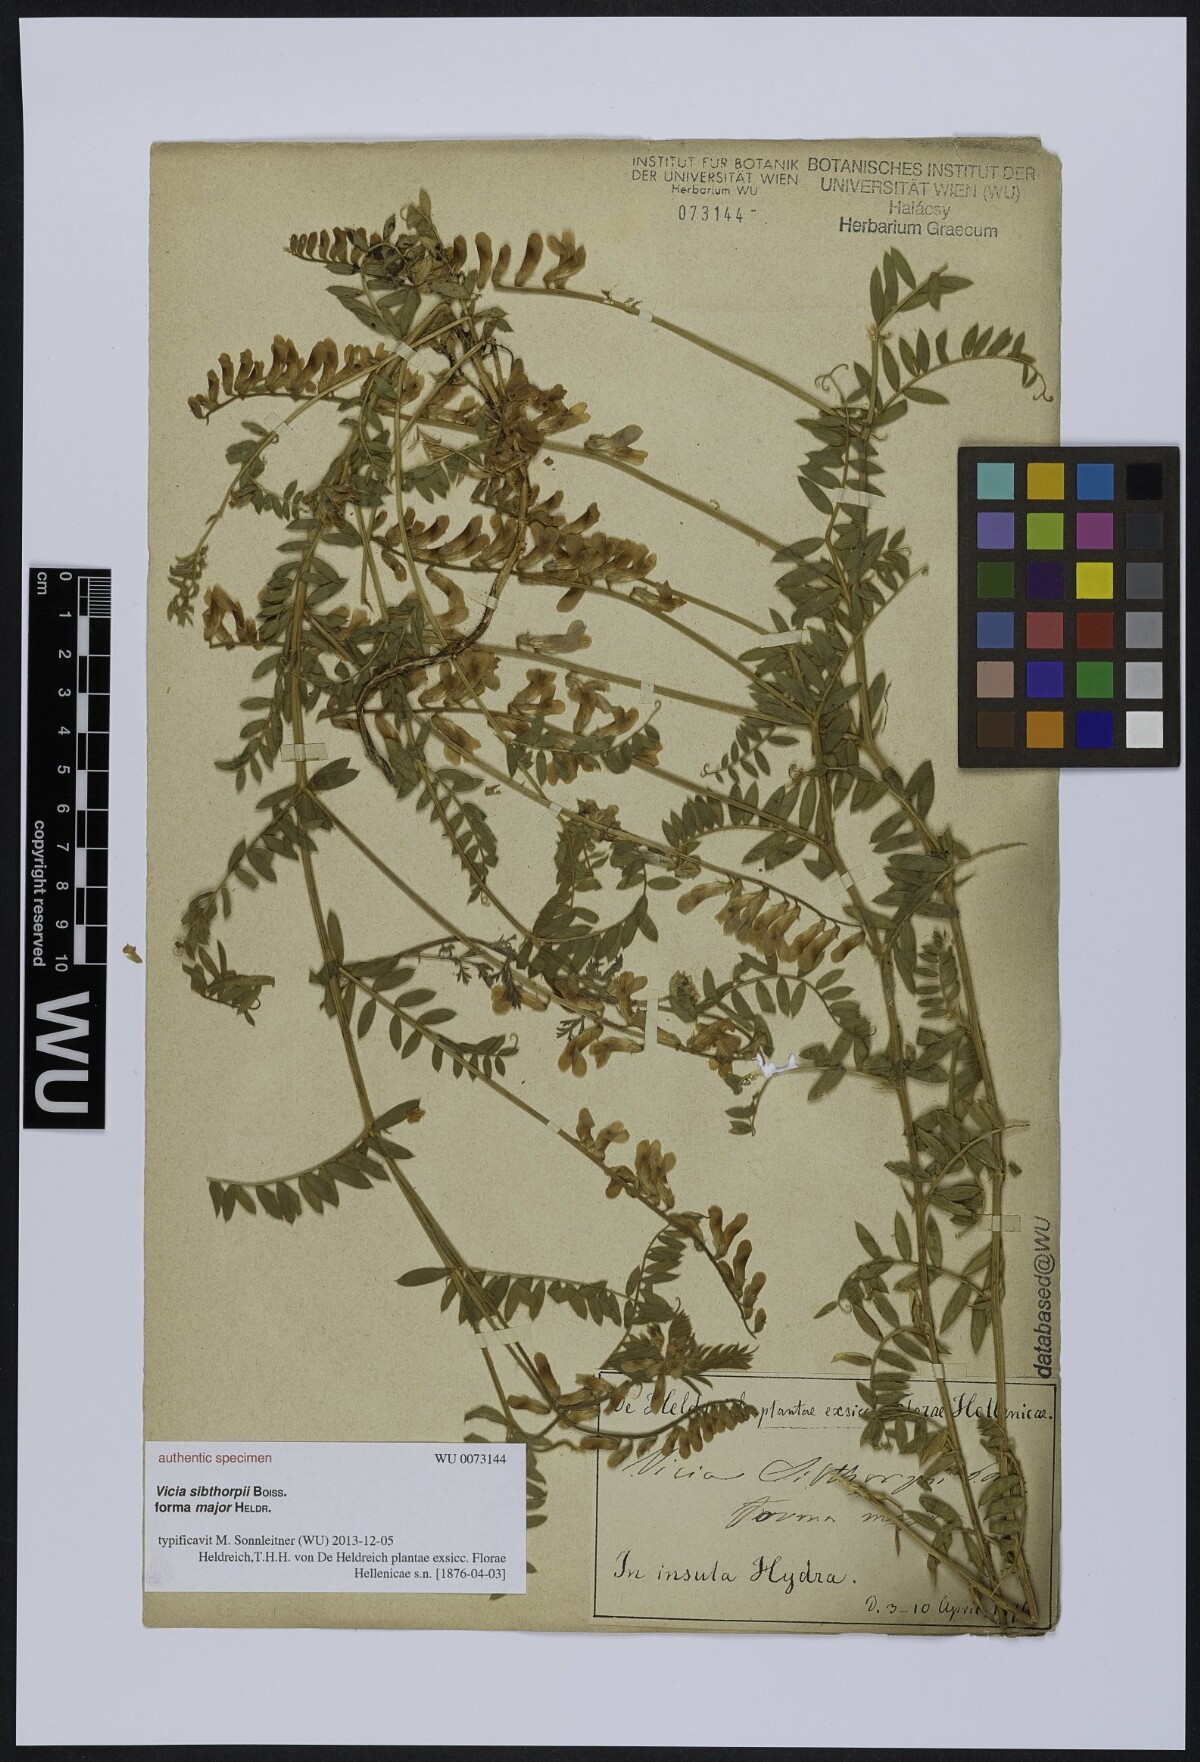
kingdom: Plantae
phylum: Tracheophyta
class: Magnoliopsida
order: Fabales
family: Fabaceae
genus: Vicia
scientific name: Vicia sibthorpii
